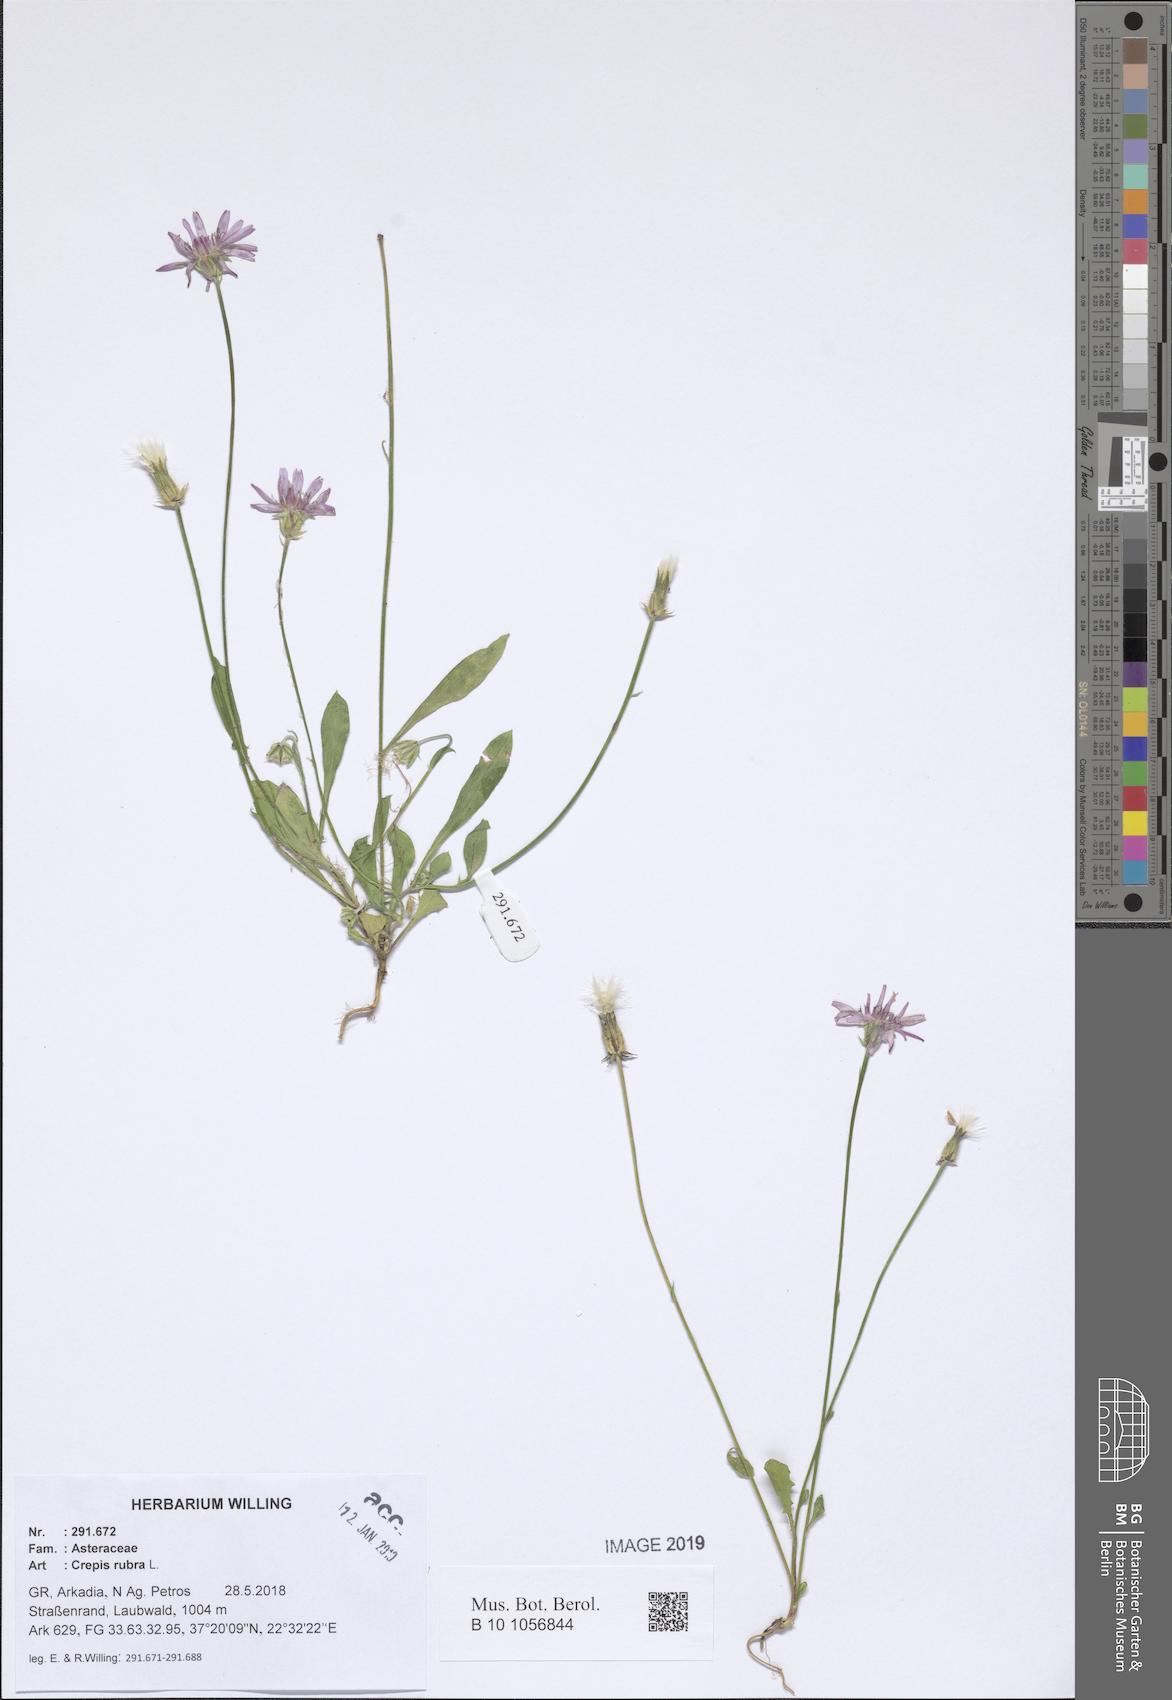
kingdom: Plantae
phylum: Tracheophyta
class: Magnoliopsida
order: Asterales
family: Asteraceae
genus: Crepis
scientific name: Crepis rubra
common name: Pink hawk's-beard
